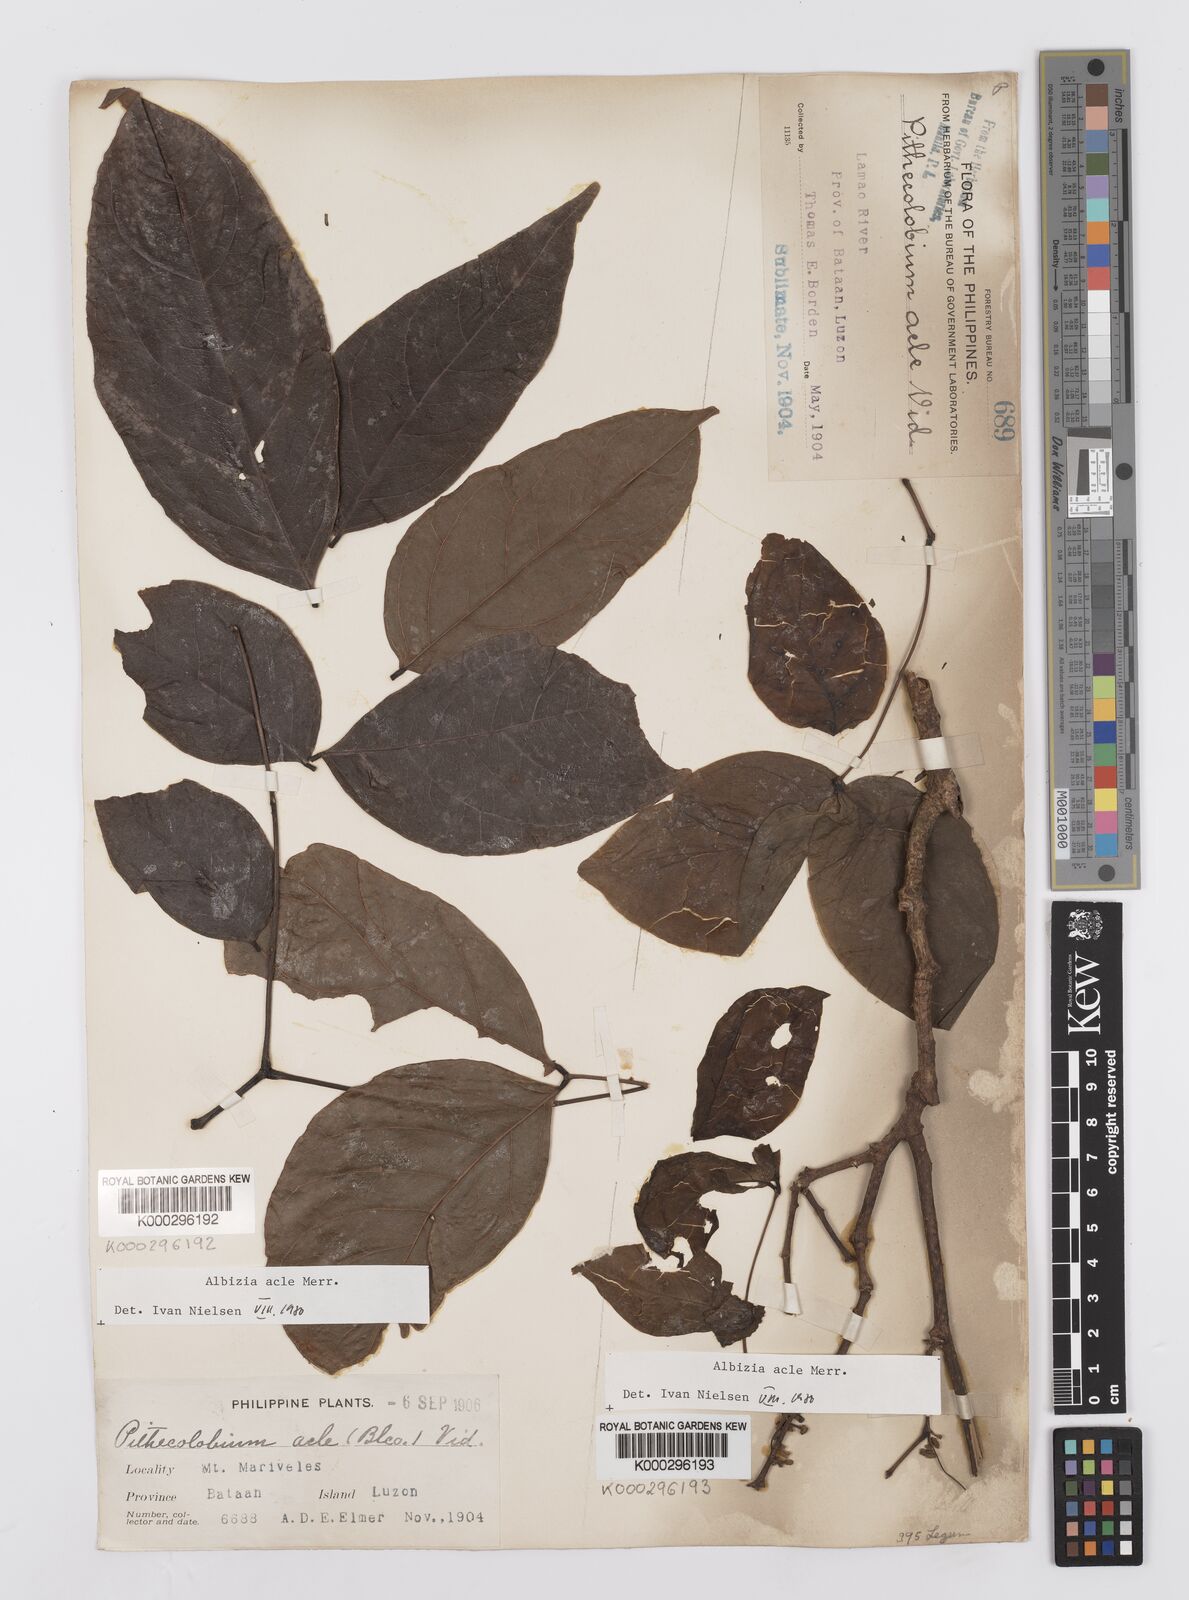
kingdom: Plantae
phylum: Tracheophyta
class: Magnoliopsida
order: Fabales
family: Fabaceae
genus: Albizia
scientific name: Albizia acle
